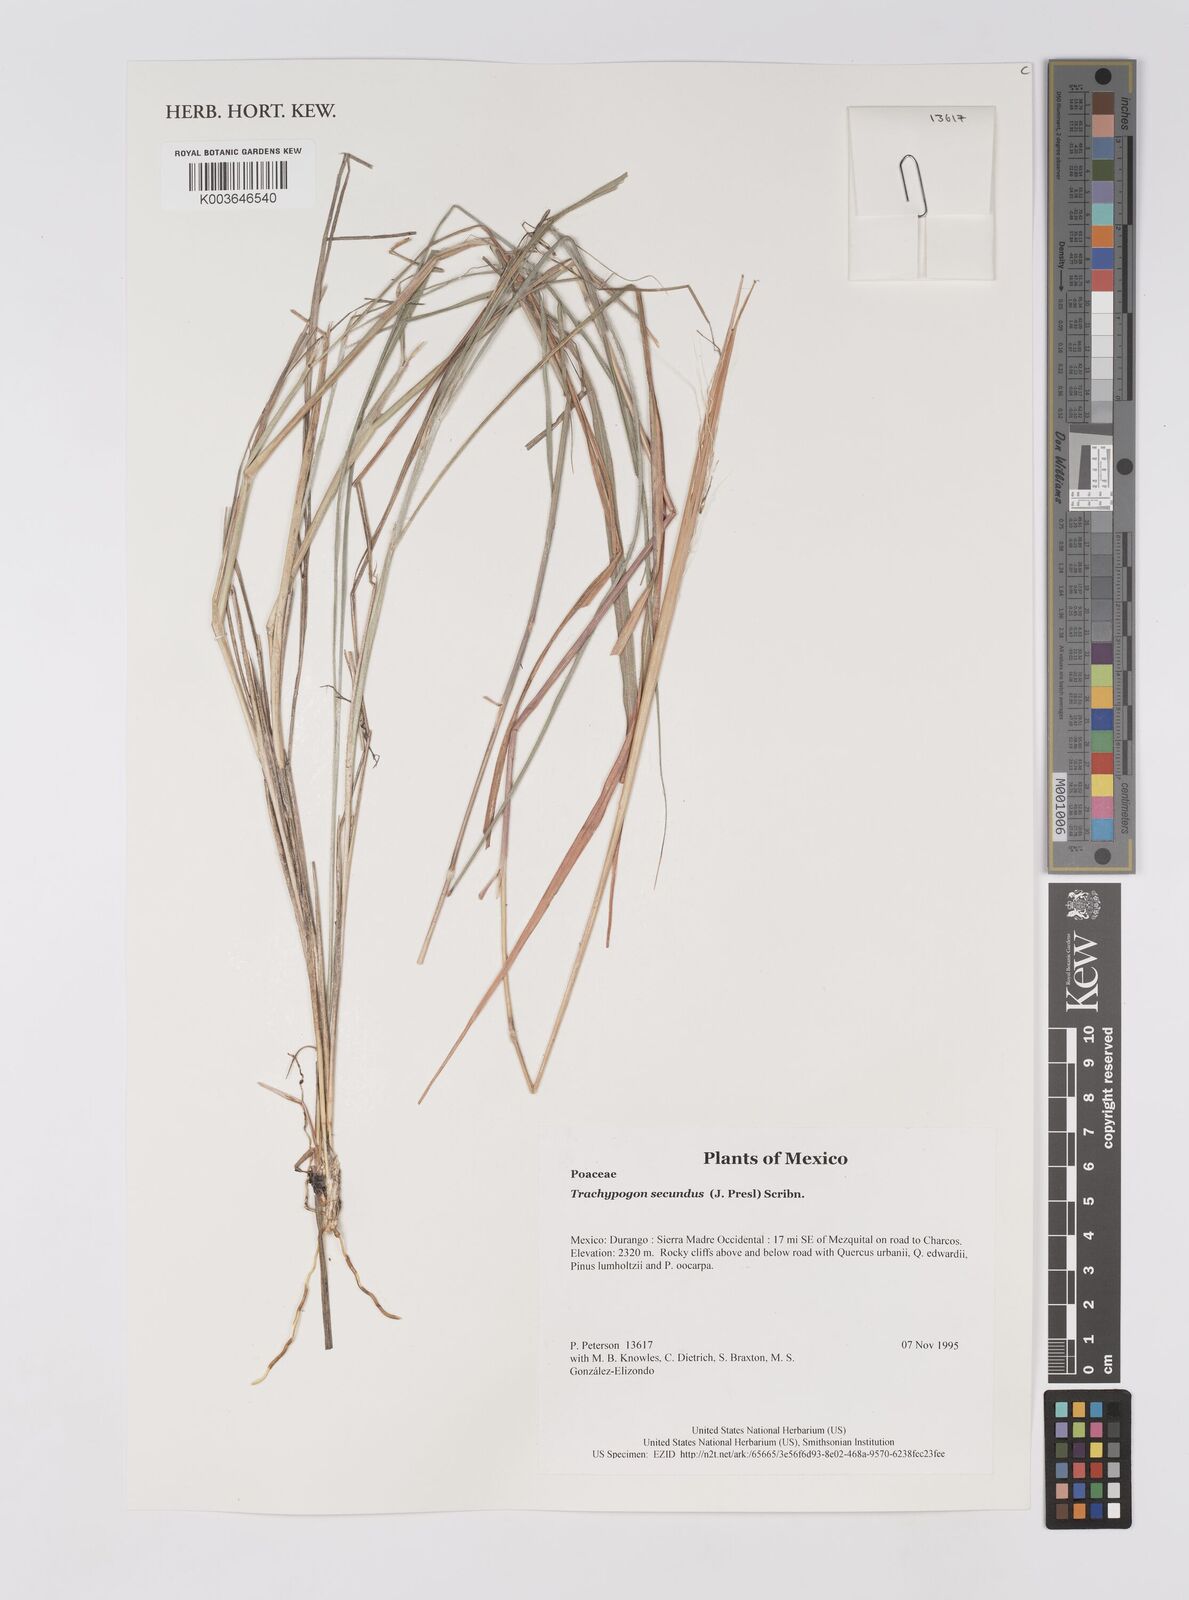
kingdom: Plantae
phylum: Tracheophyta
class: Liliopsida
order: Poales
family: Poaceae
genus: Trachypogon
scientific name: Trachypogon spicatus
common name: Crinkle-awn
